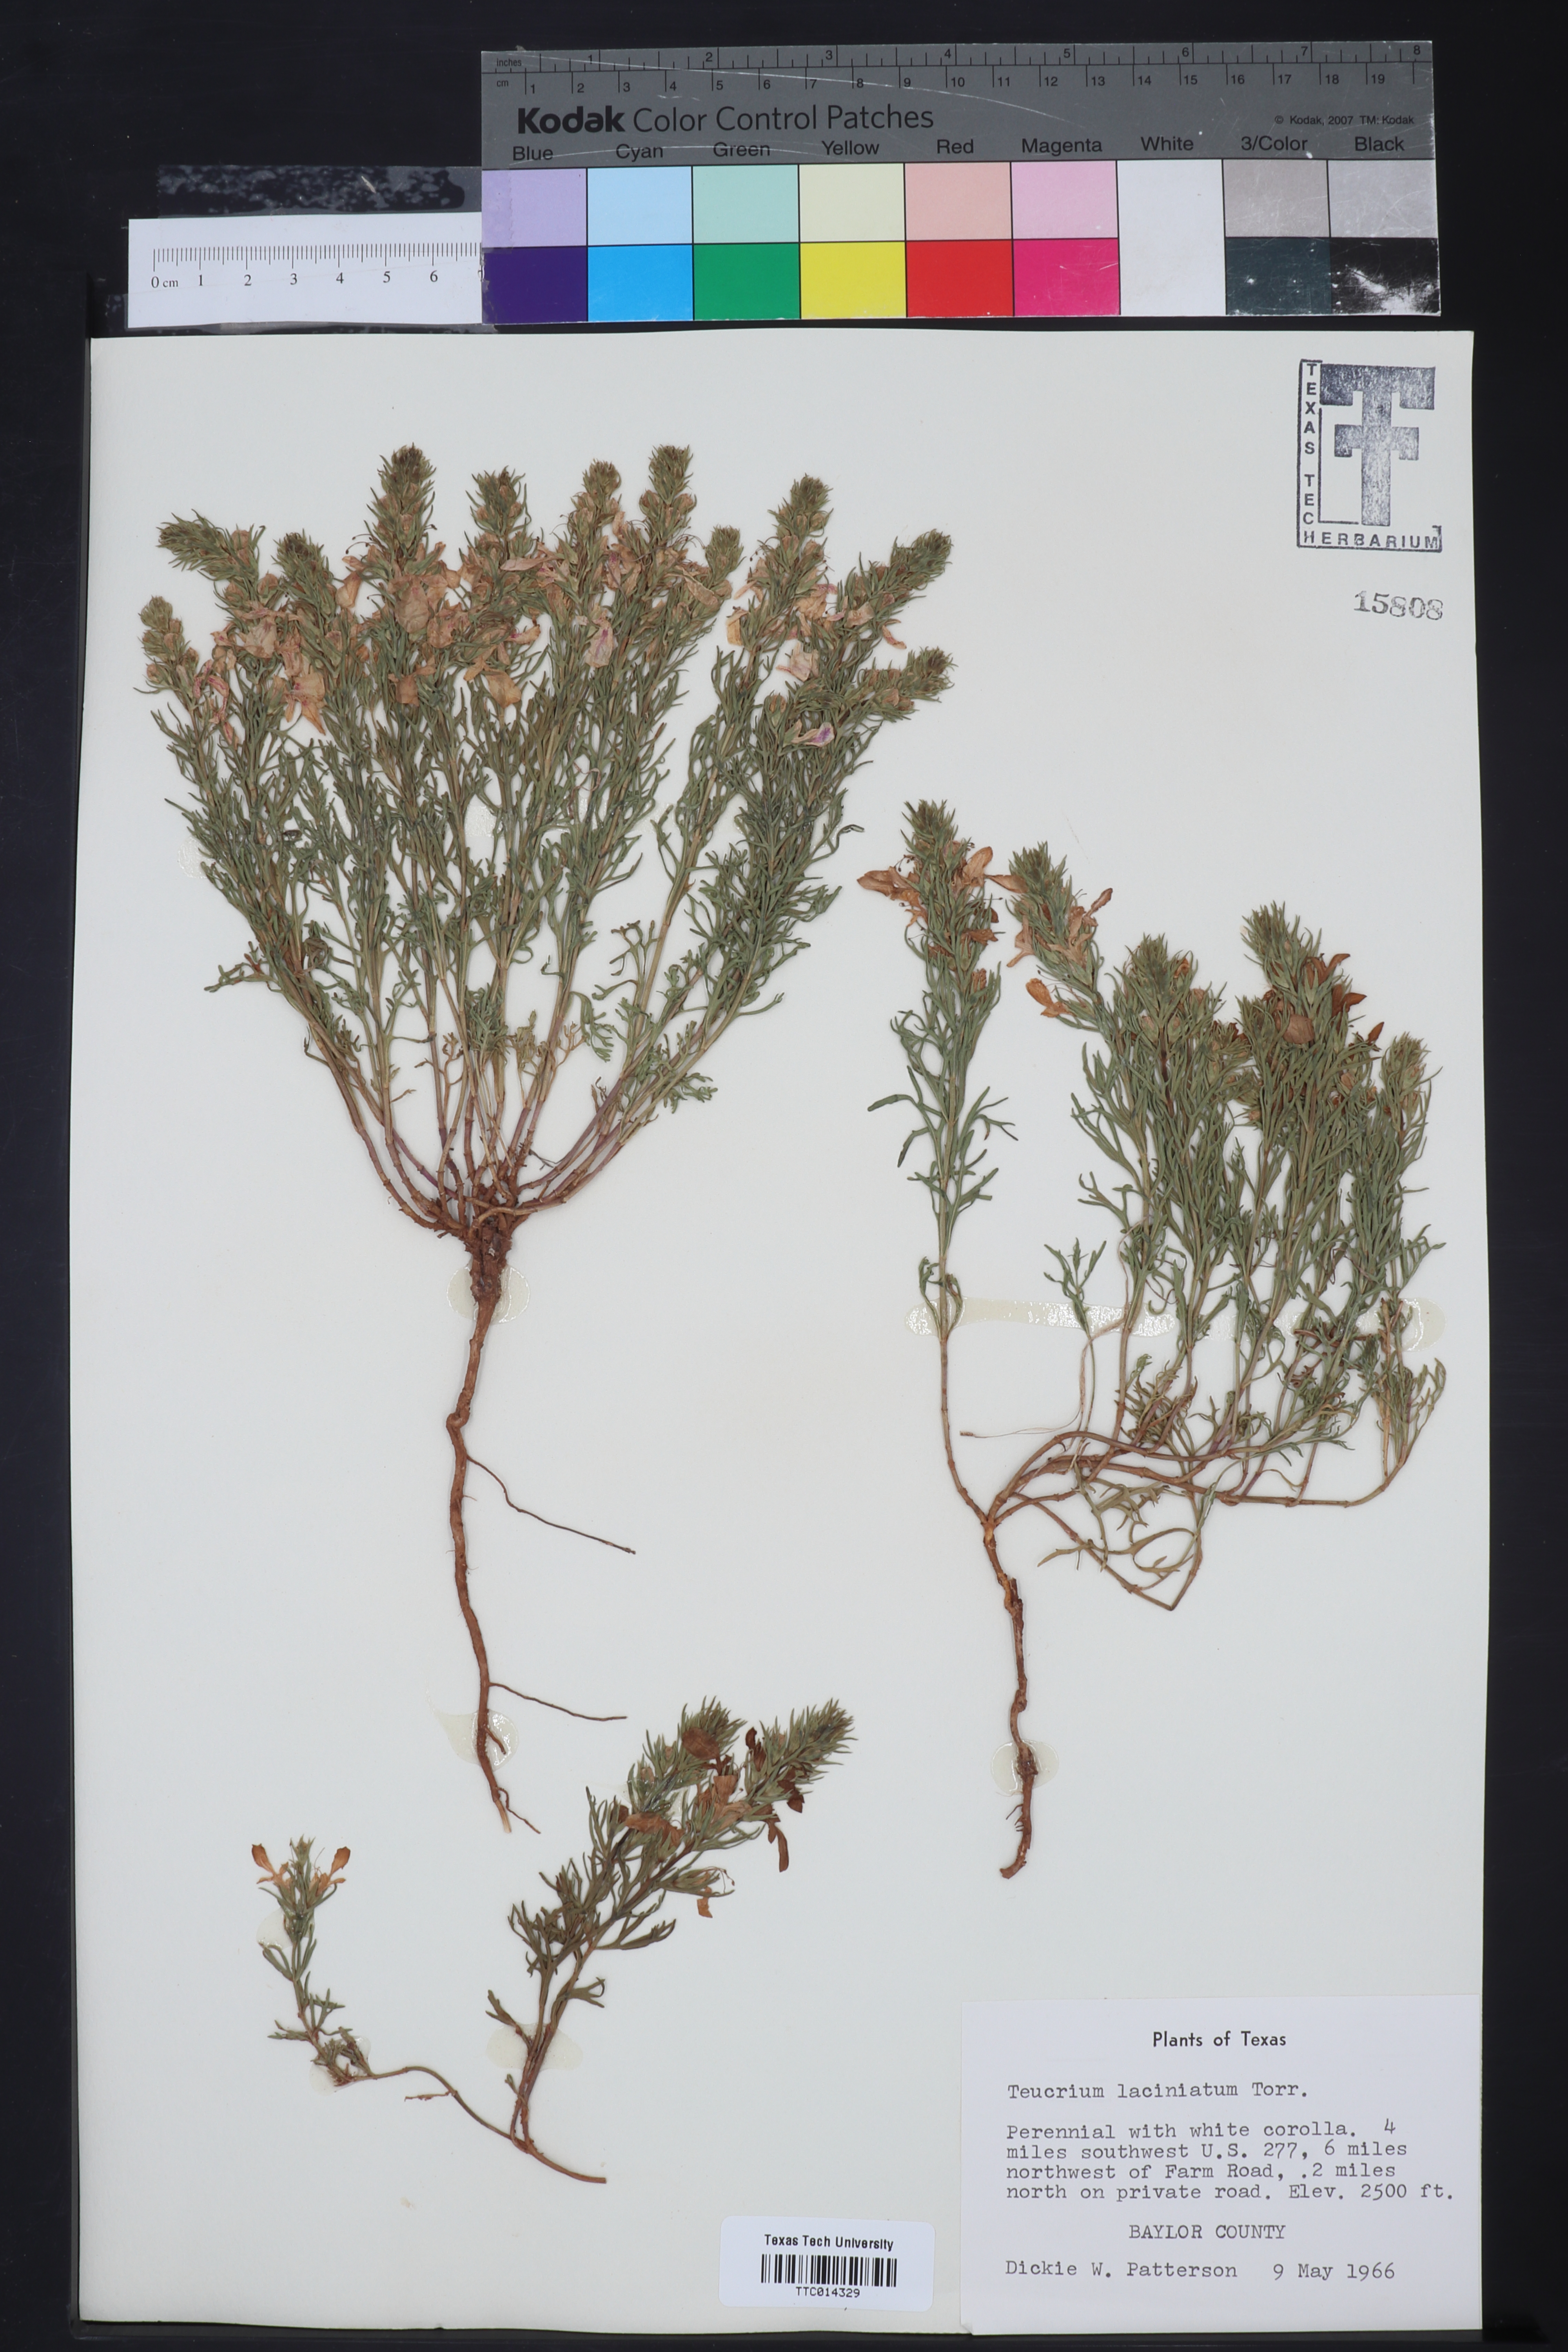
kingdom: Plantae
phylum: Tracheophyta
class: Magnoliopsida
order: Lamiales
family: Lamiaceae
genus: Teucrium
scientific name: Teucrium laciniatum
